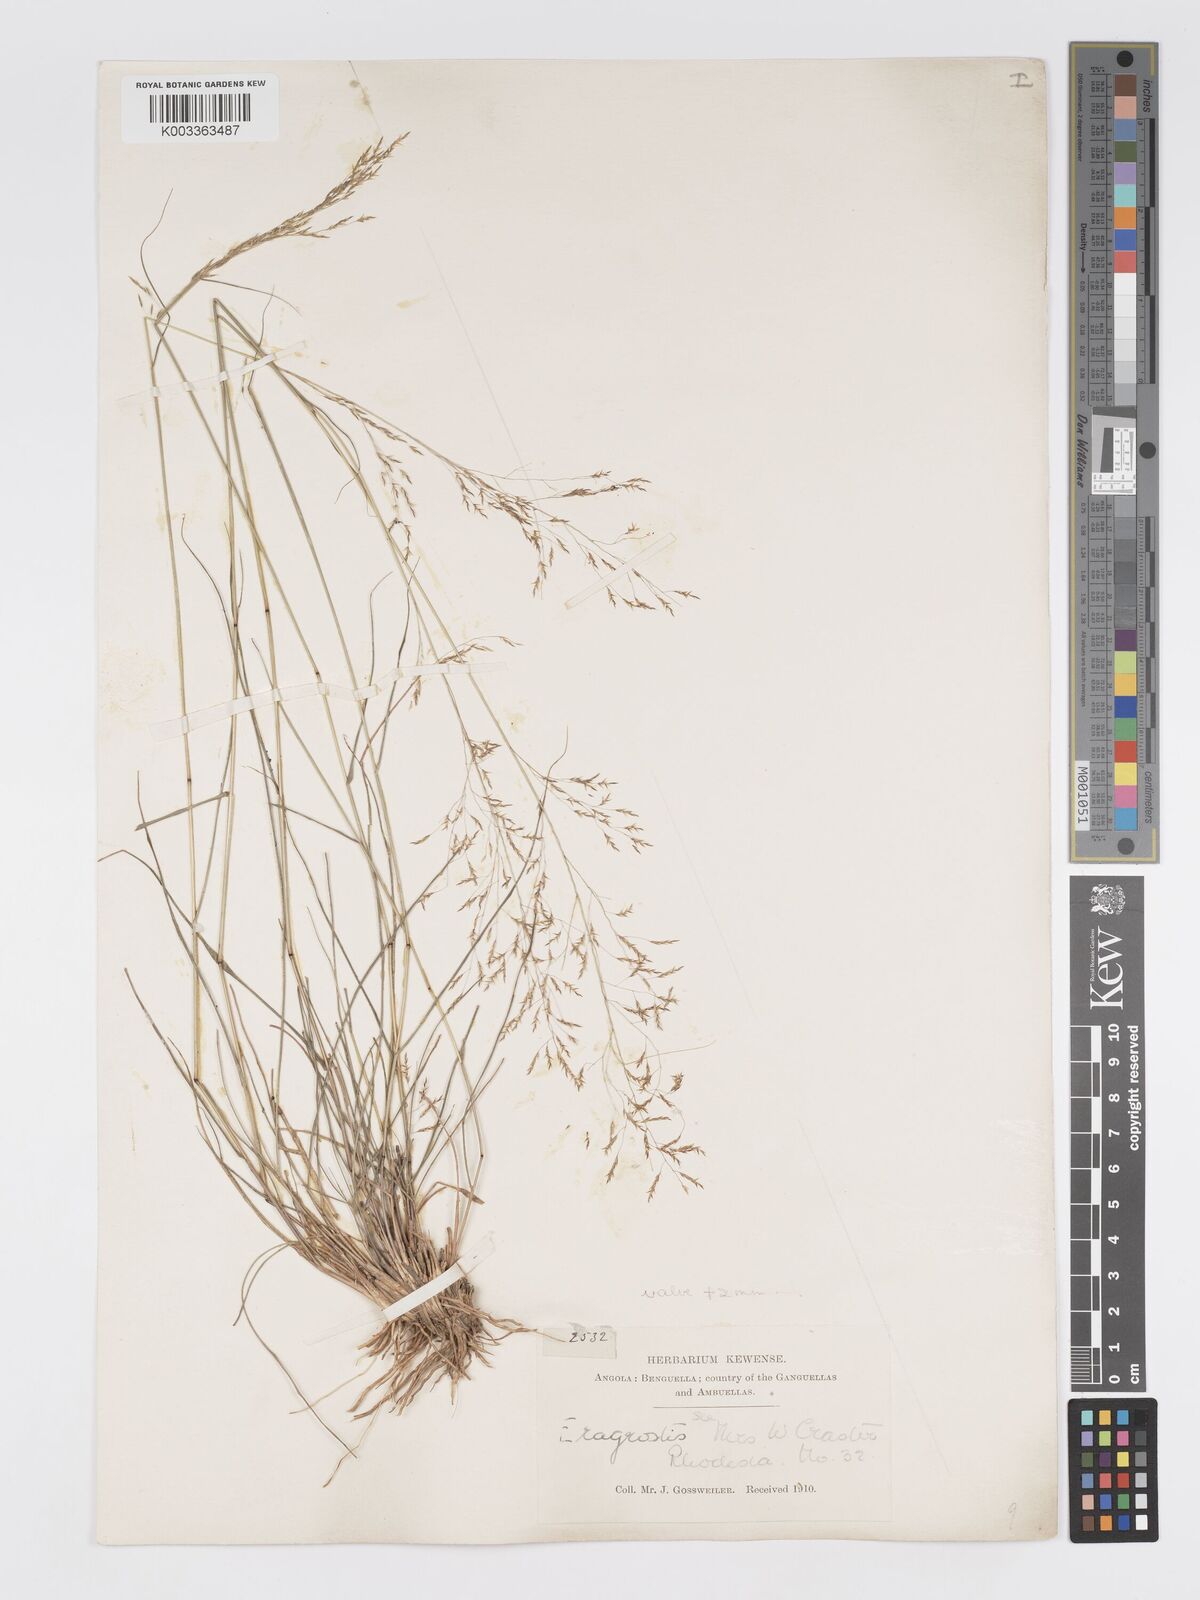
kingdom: Plantae
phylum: Tracheophyta
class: Liliopsida
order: Poales
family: Poaceae
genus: Eragrostis
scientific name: Eragrostis pilosa
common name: Indian lovegrass
